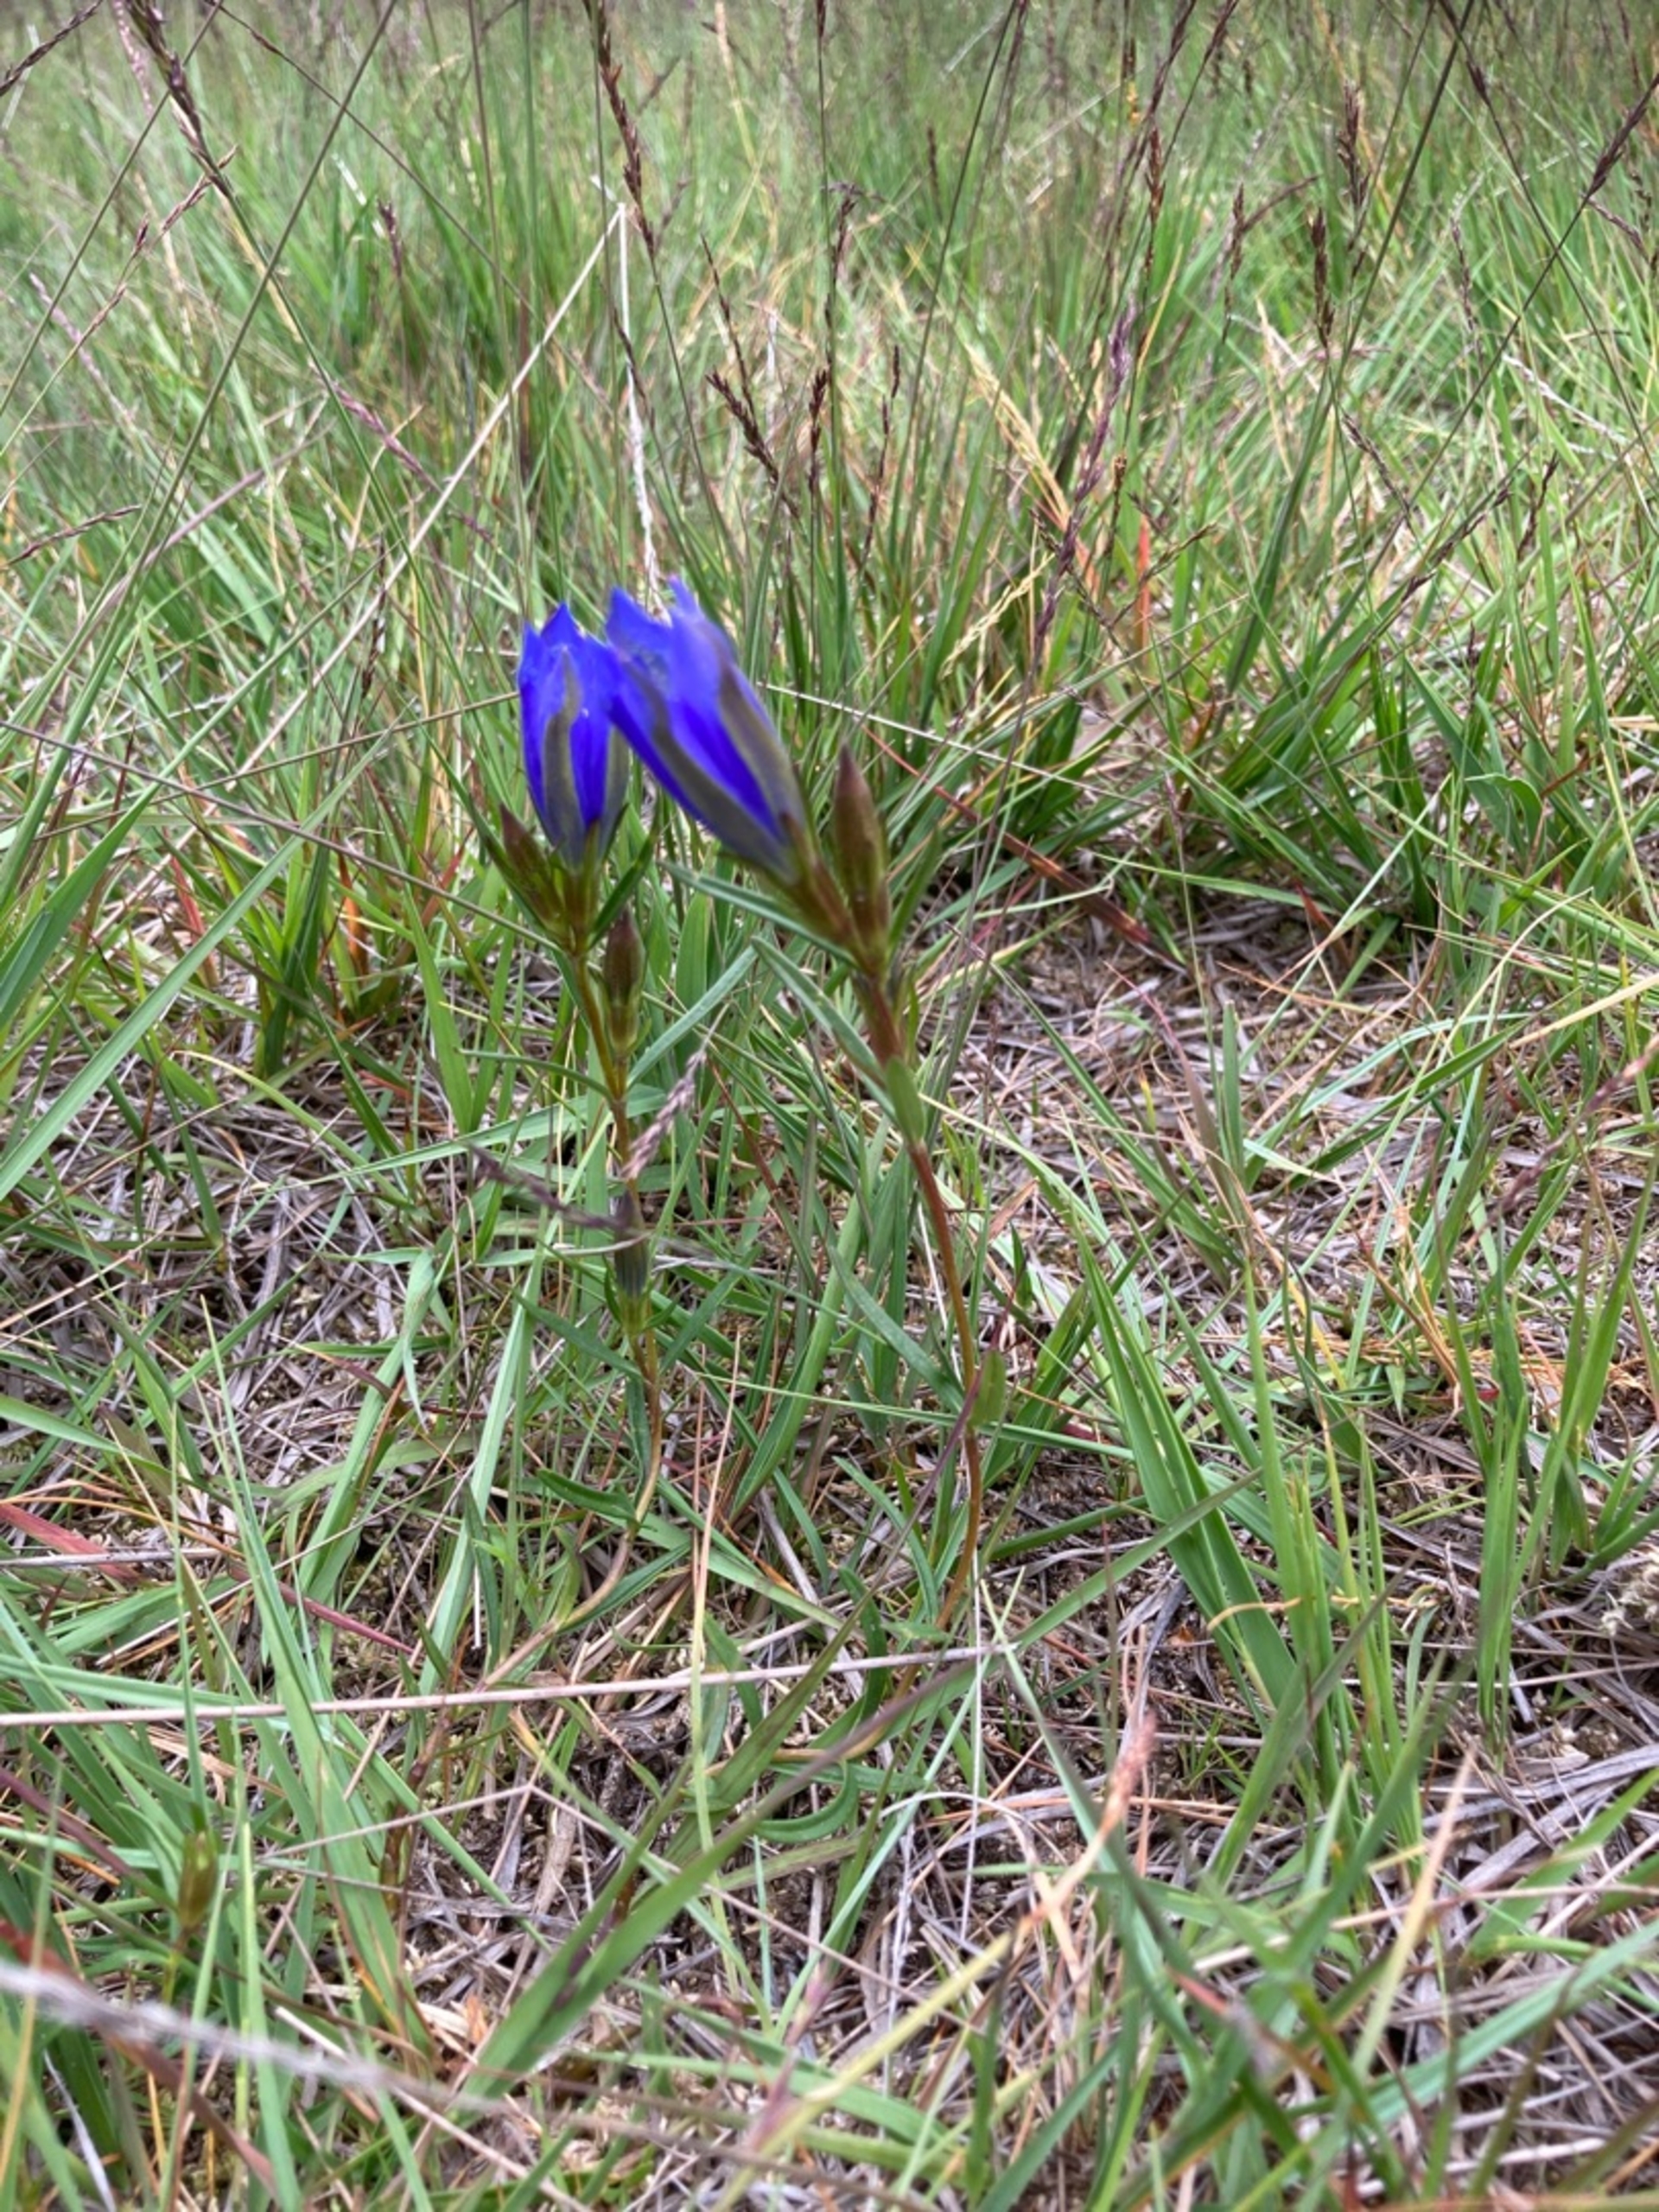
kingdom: Plantae
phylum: Tracheophyta
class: Magnoliopsida
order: Gentianales
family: Gentianaceae
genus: Gentiana
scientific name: Gentiana pneumonanthe
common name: Klokke-ensian
